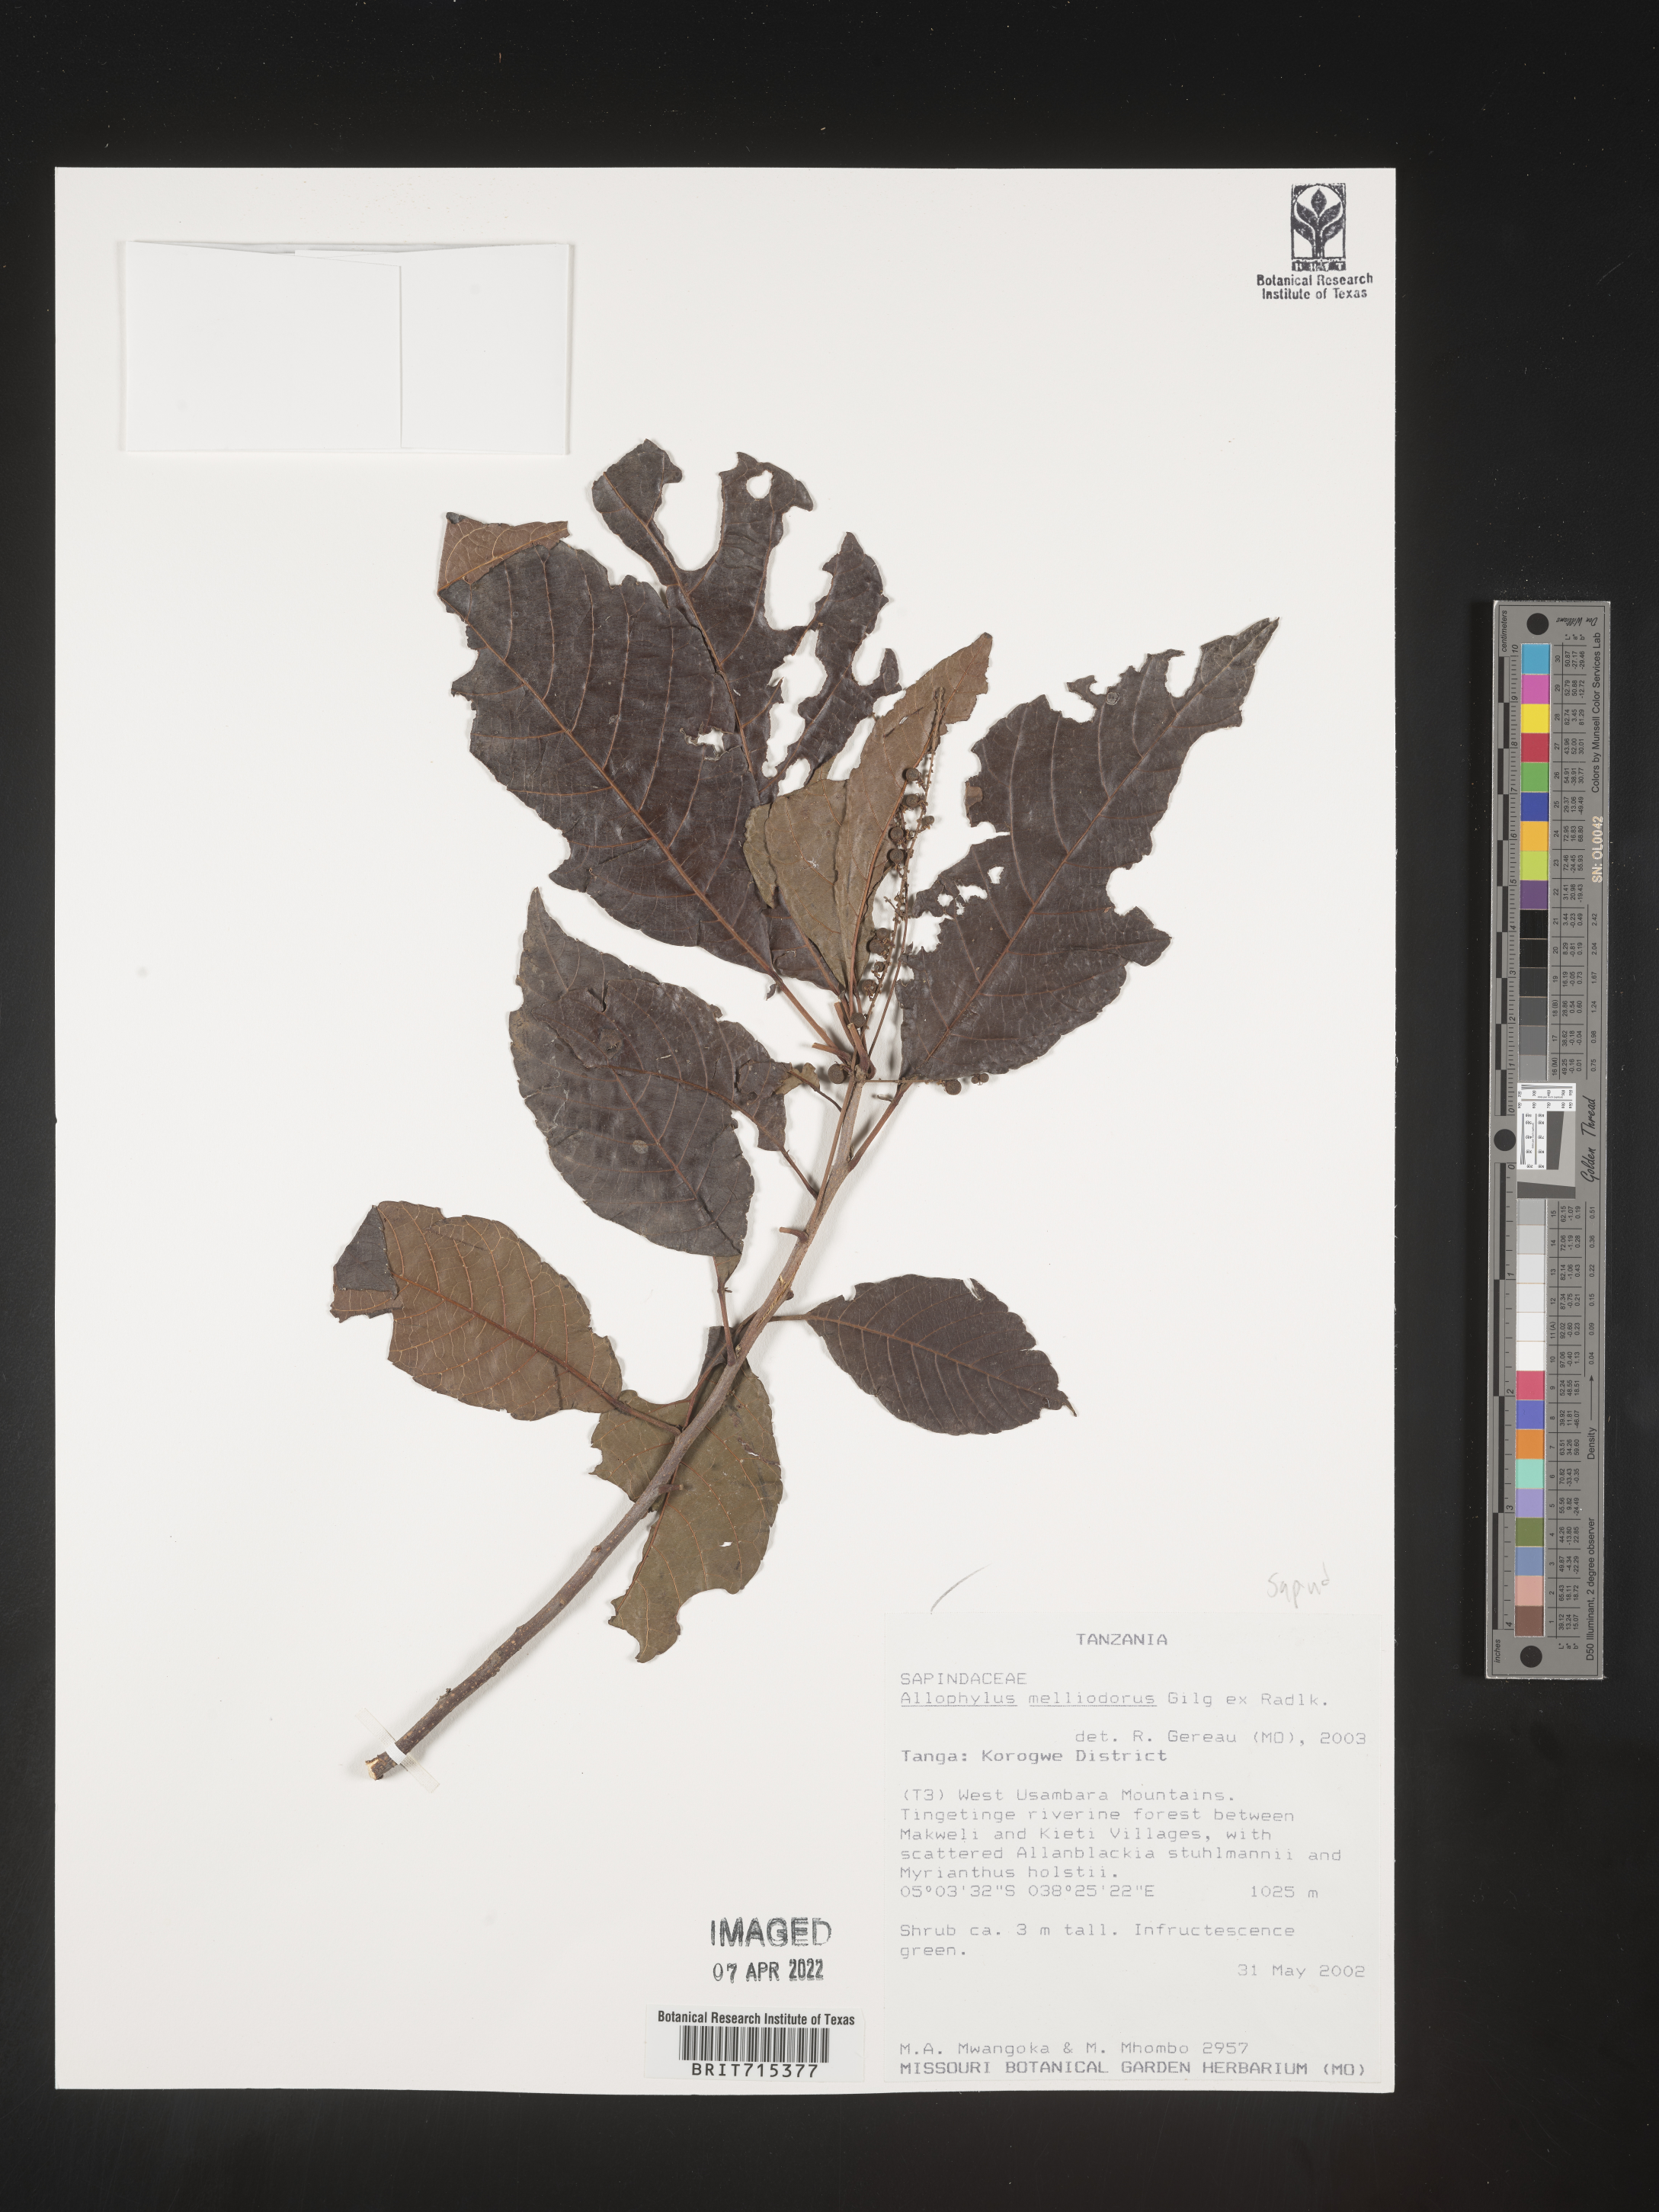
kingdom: Plantae
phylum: Tracheophyta
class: Magnoliopsida
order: Sapindales
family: Sapindaceae
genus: Allophylus
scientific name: Allophylus fulvotomentosus
